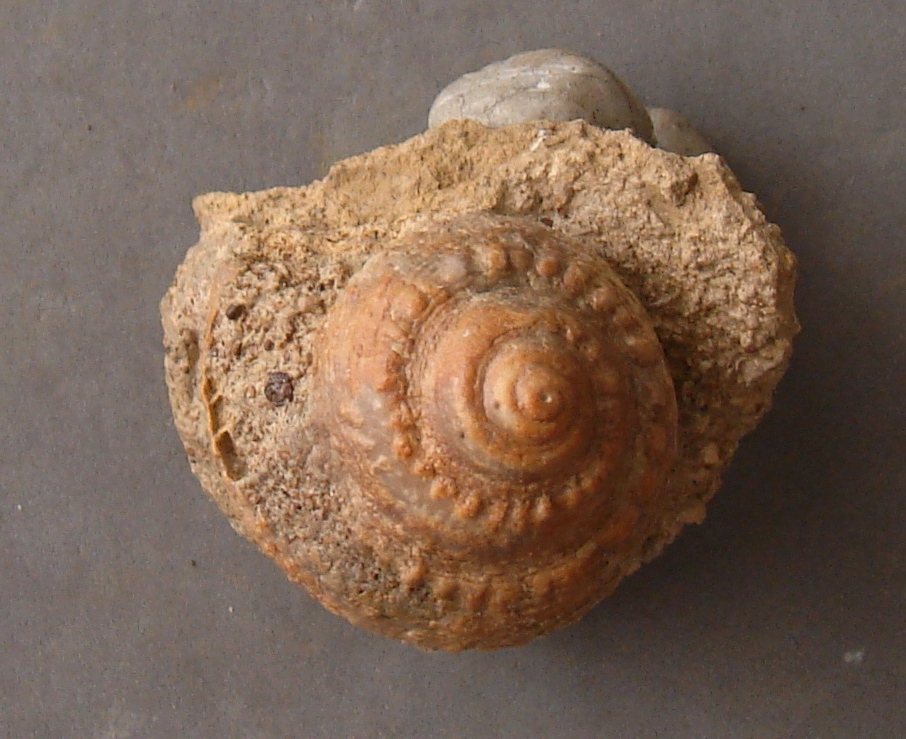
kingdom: Animalia
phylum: Mollusca
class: Gastropoda
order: Pleurotomariida
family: Pleurotomariidae
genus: Obornella
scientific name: Obornella Pleurotomaria lentiformis
